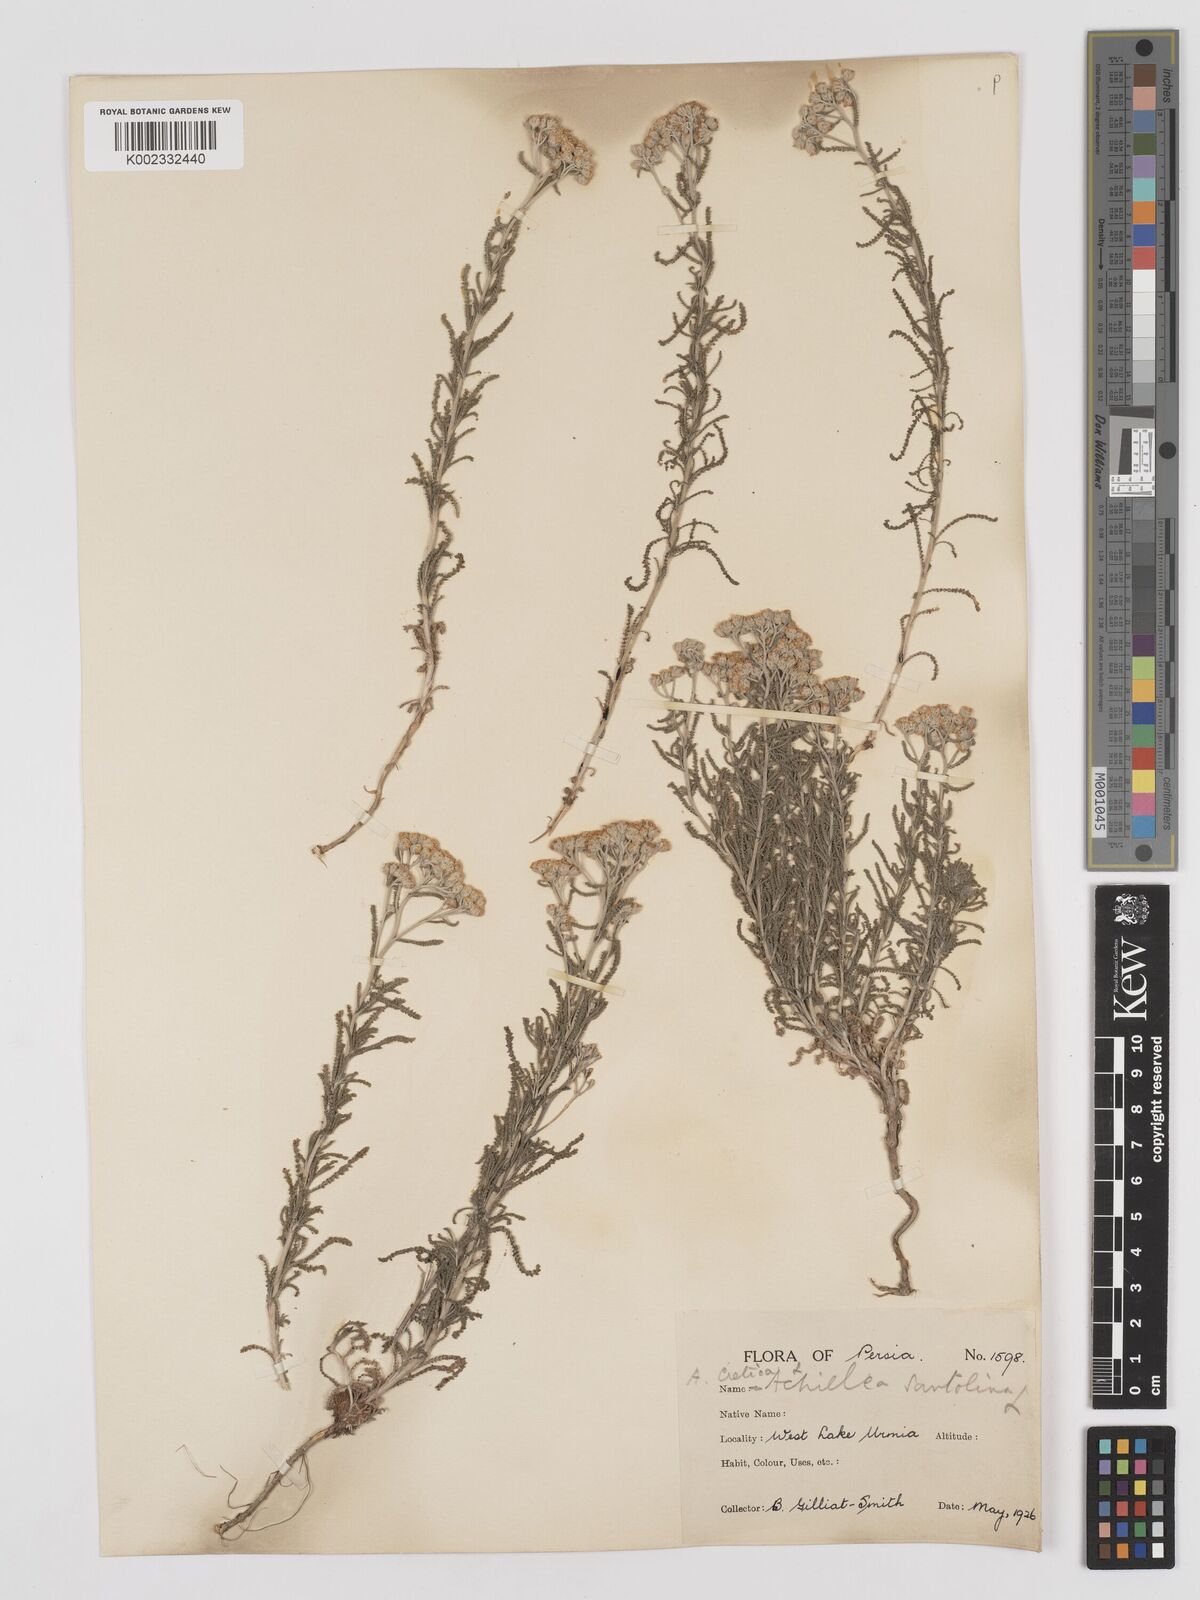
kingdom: Plantae
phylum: Tracheophyta
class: Magnoliopsida
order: Asterales
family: Asteraceae
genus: Achillea
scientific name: Achillea tenuifolia
